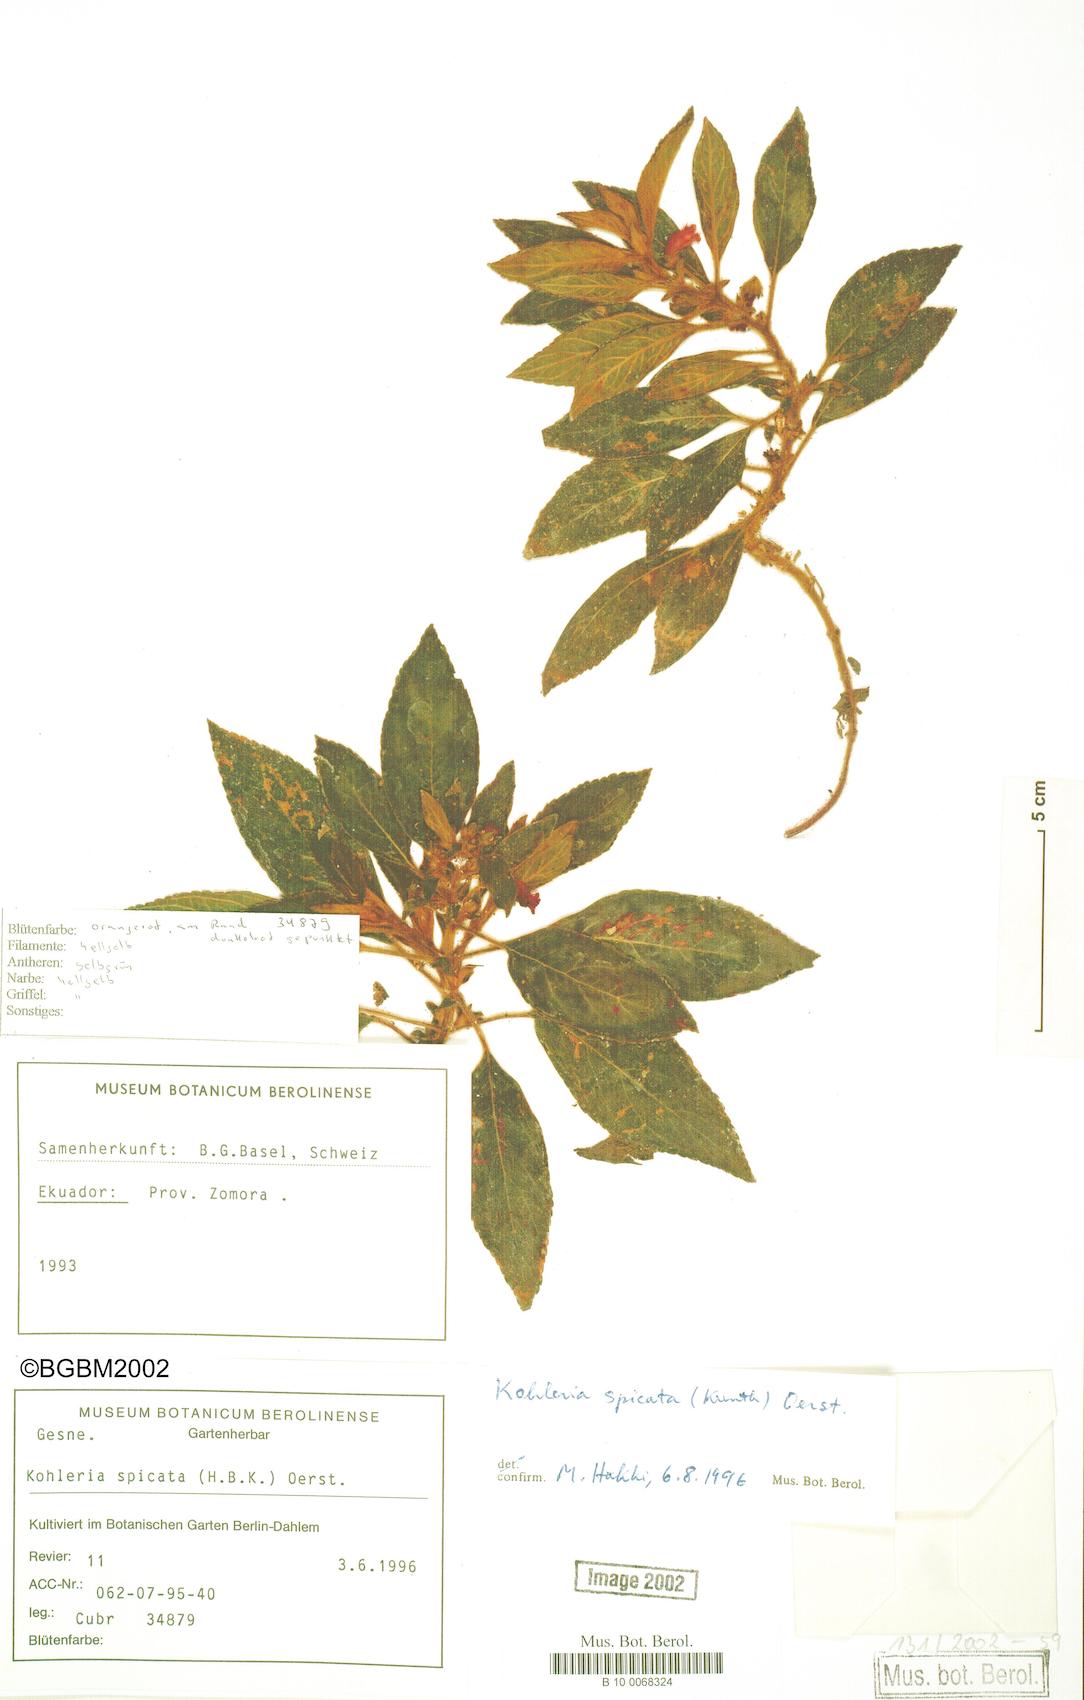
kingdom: Plantae
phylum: Tracheophyta
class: Magnoliopsida
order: Lamiales
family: Gesneriaceae
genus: Kohleria
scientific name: Kohleria spicata
